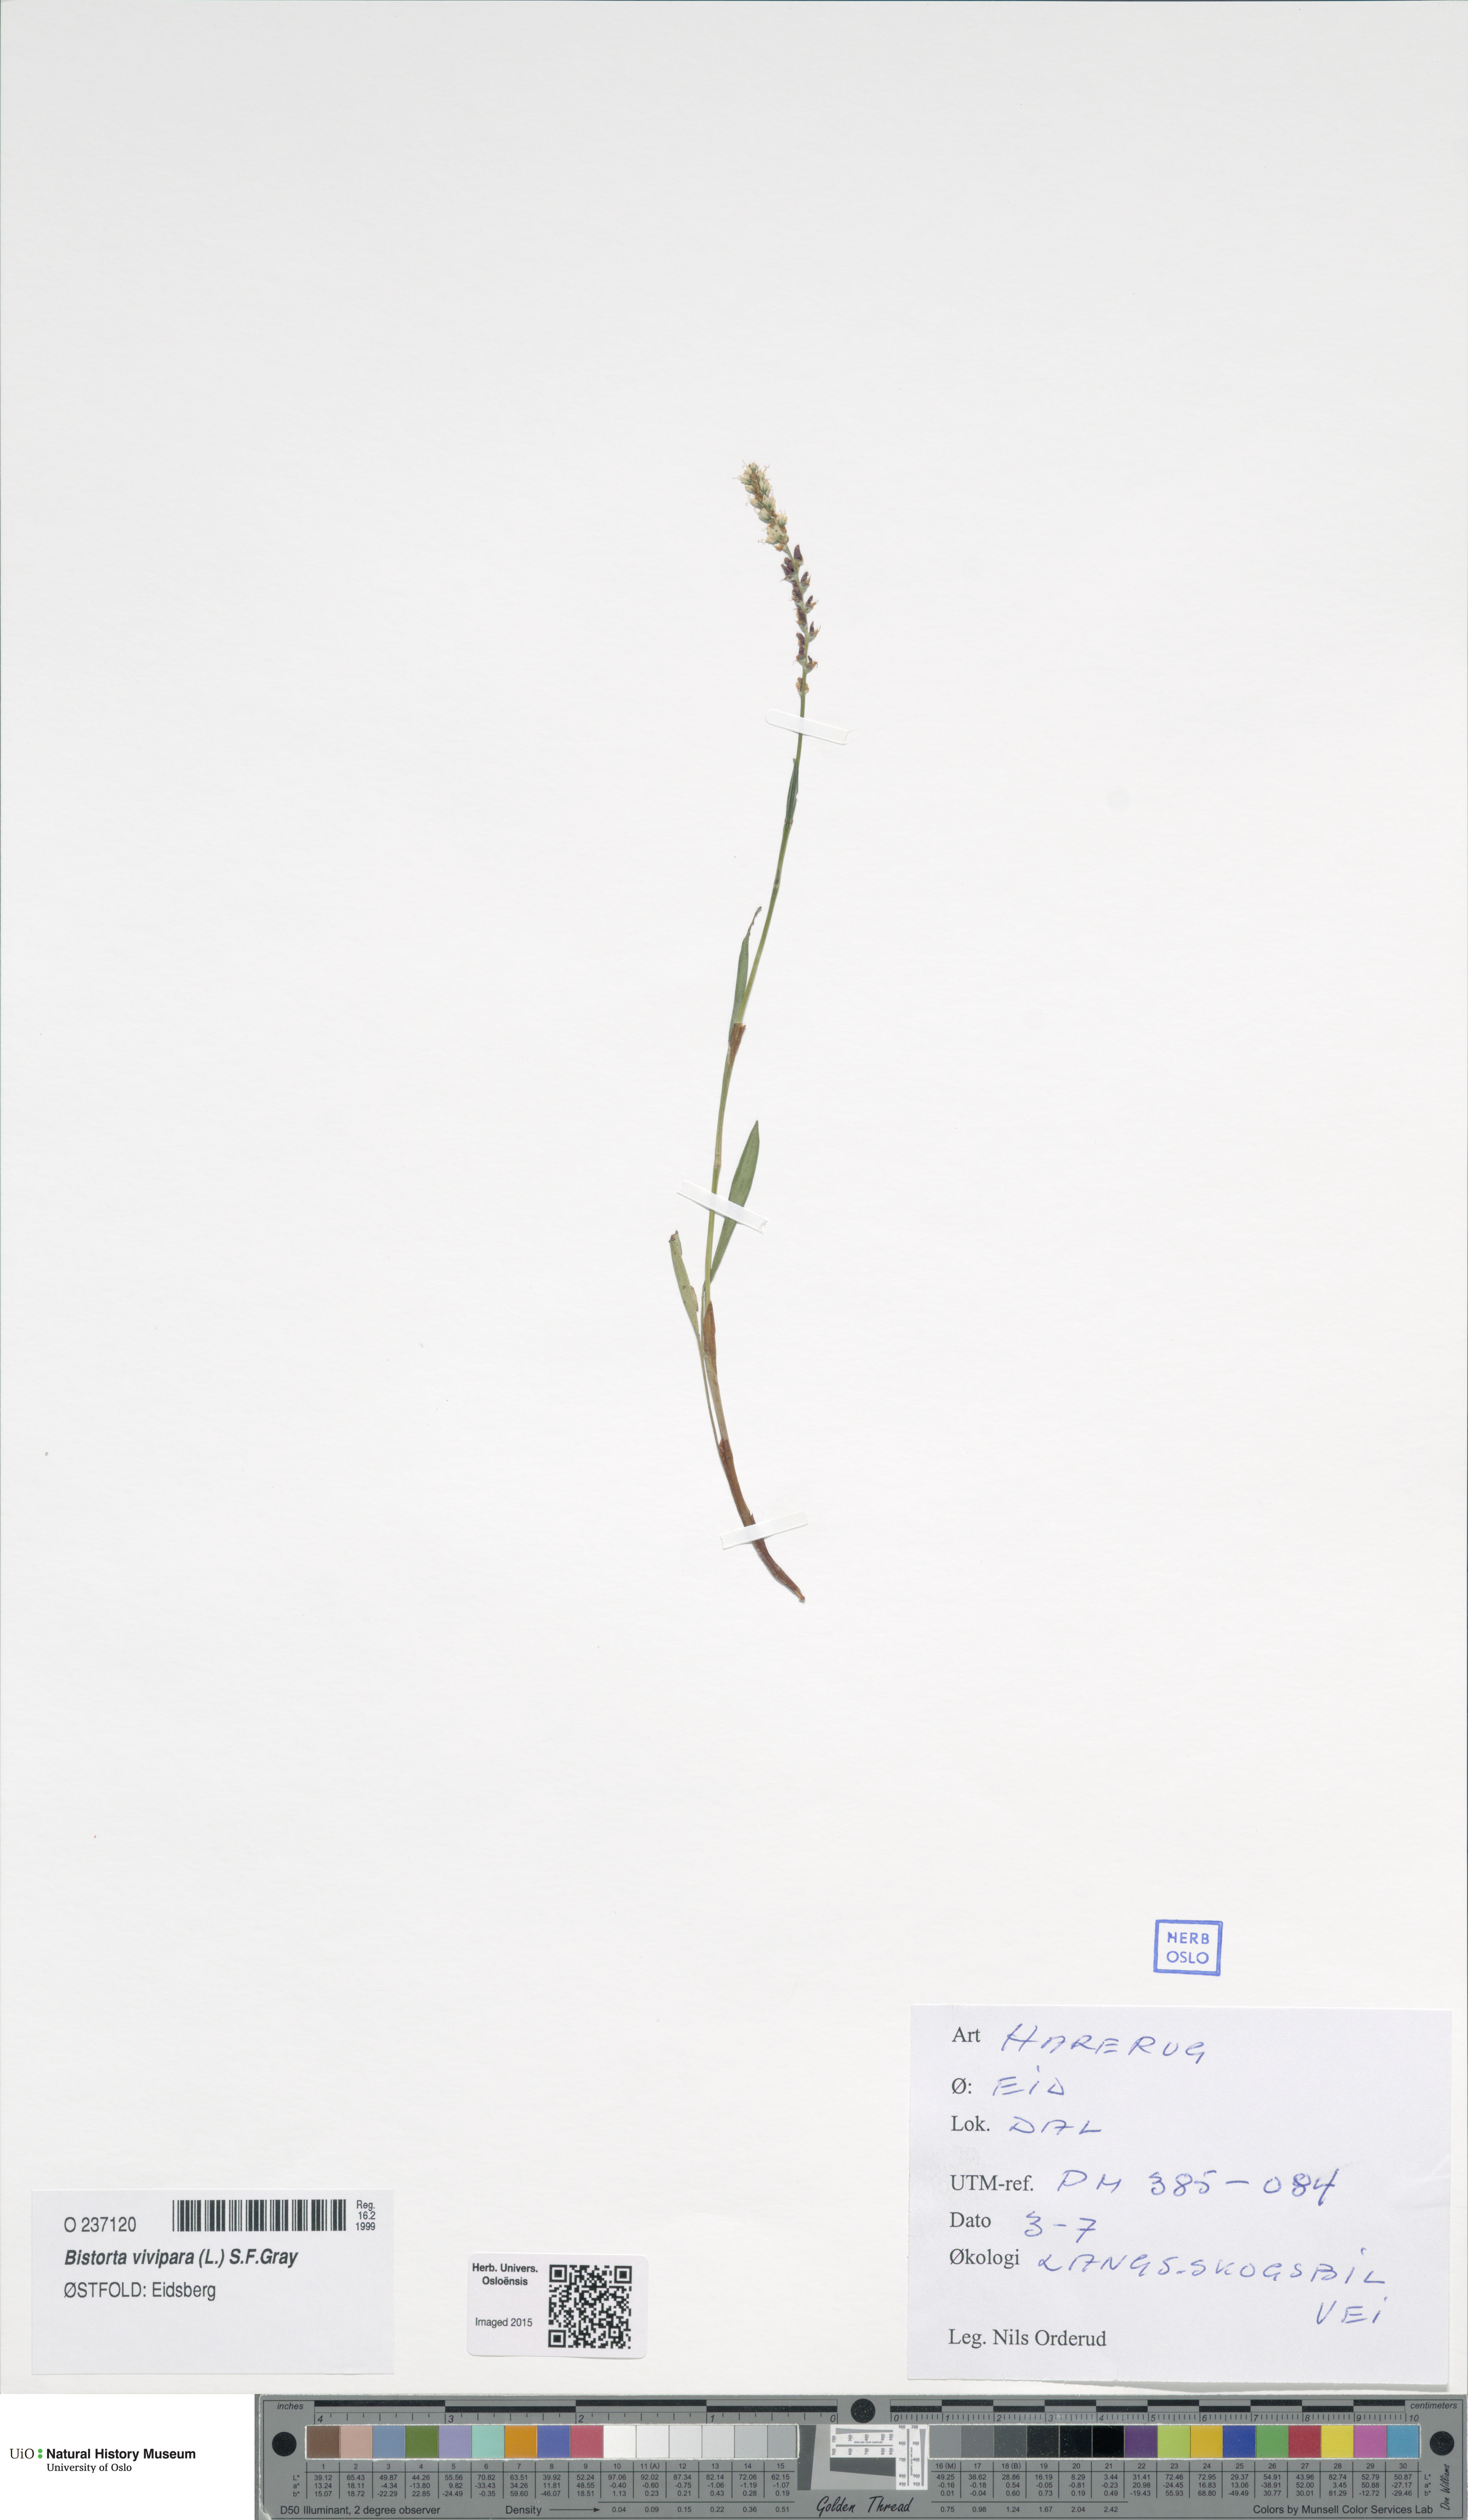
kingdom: Plantae
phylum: Tracheophyta
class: Magnoliopsida
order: Caryophyllales
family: Polygonaceae
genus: Bistorta
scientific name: Bistorta vivipara
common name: Alpine bistort
